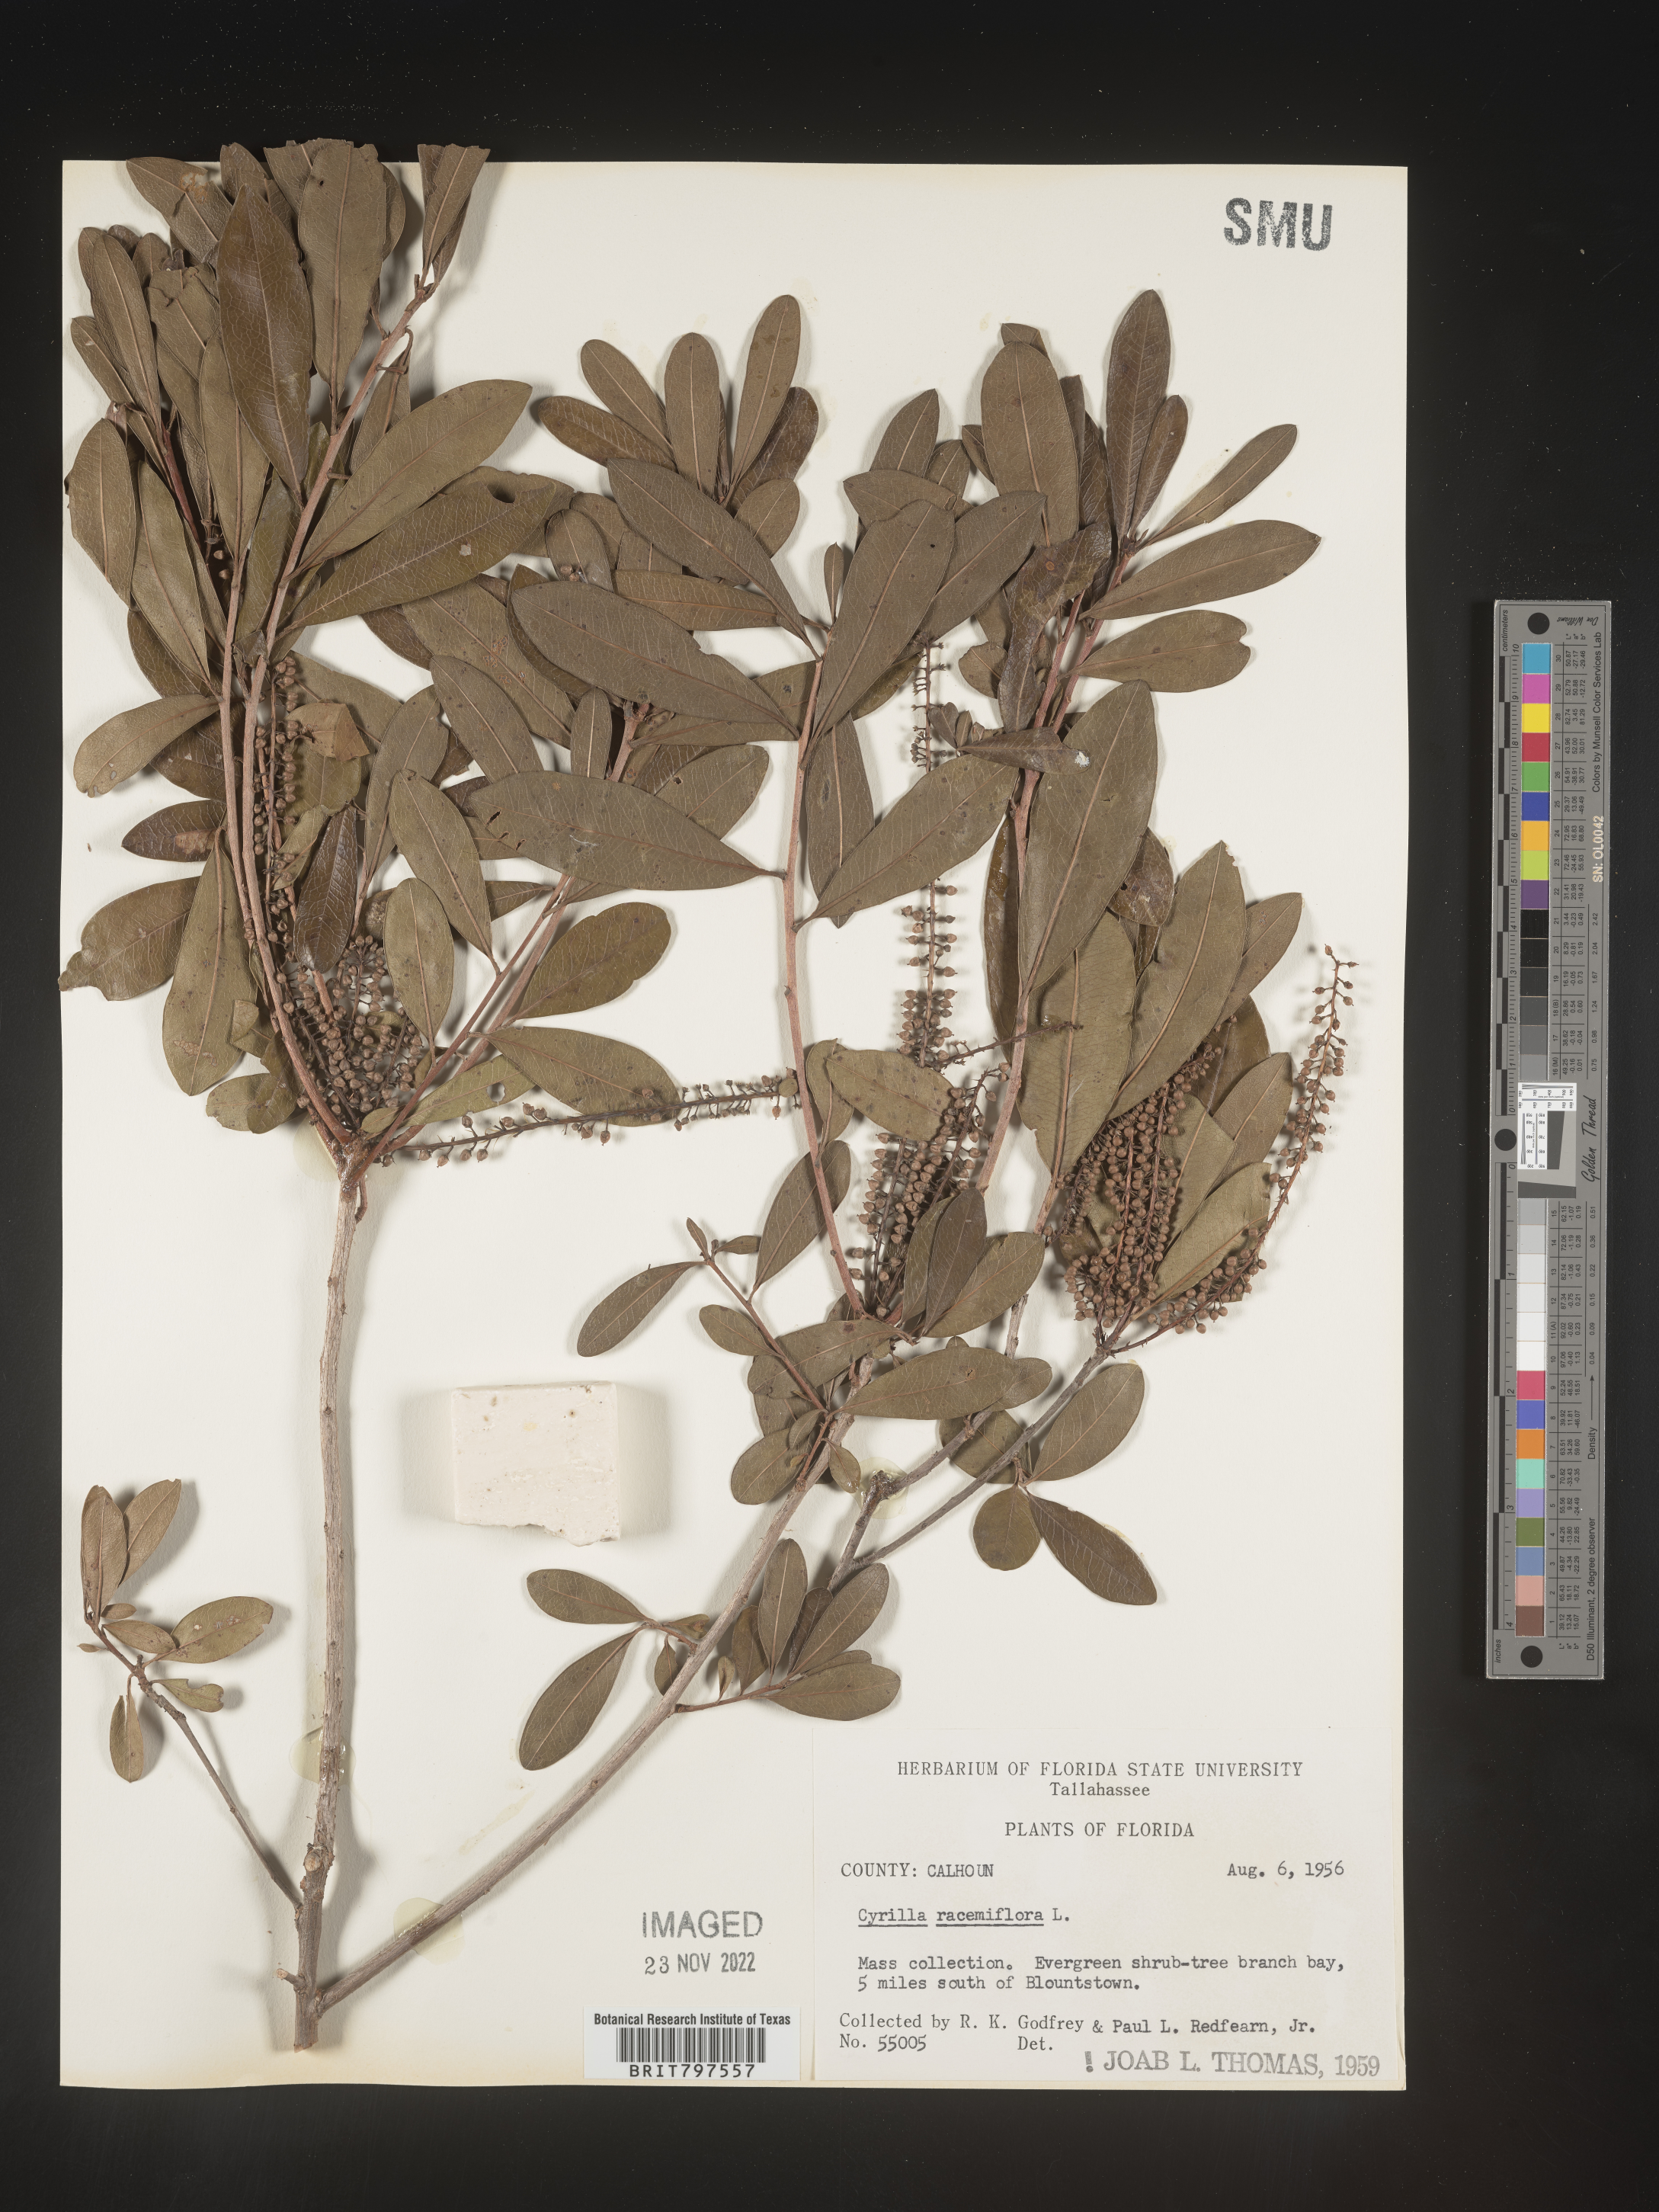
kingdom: Plantae
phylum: Tracheophyta
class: Magnoliopsida
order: Ericales
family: Cyrillaceae
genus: Cyrilla
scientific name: Cyrilla racemiflora
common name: Black titi
